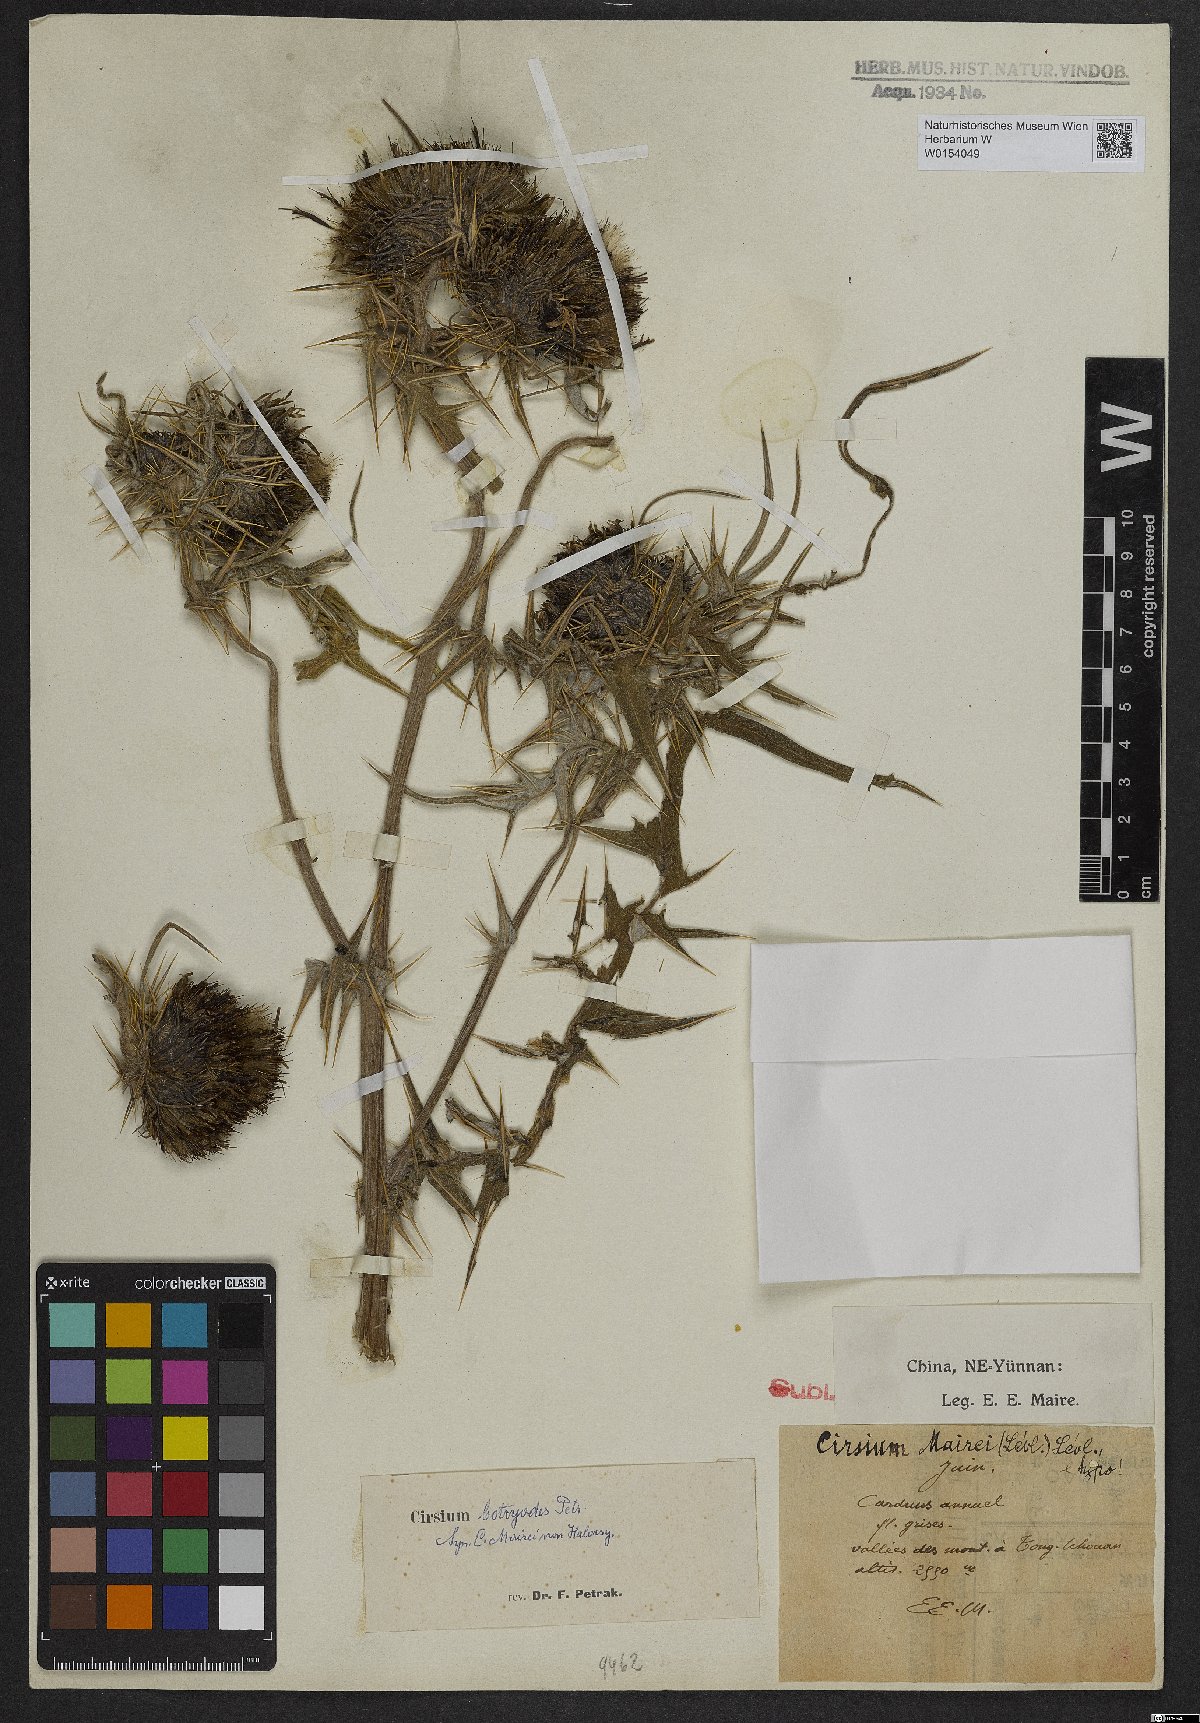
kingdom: Plantae
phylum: Tracheophyta
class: Magnoliopsida
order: Asterales
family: Asteraceae
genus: Cirsium
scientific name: Cirsium botryodes
